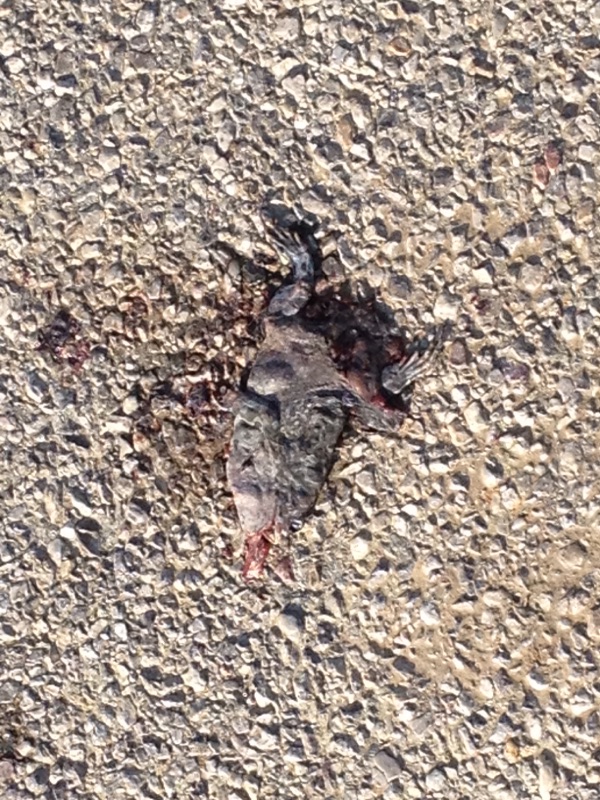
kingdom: Animalia
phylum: Chordata
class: Amphibia
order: Anura
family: Bufonidae
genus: Bufotes
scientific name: Bufotes viridis
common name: European green toad
